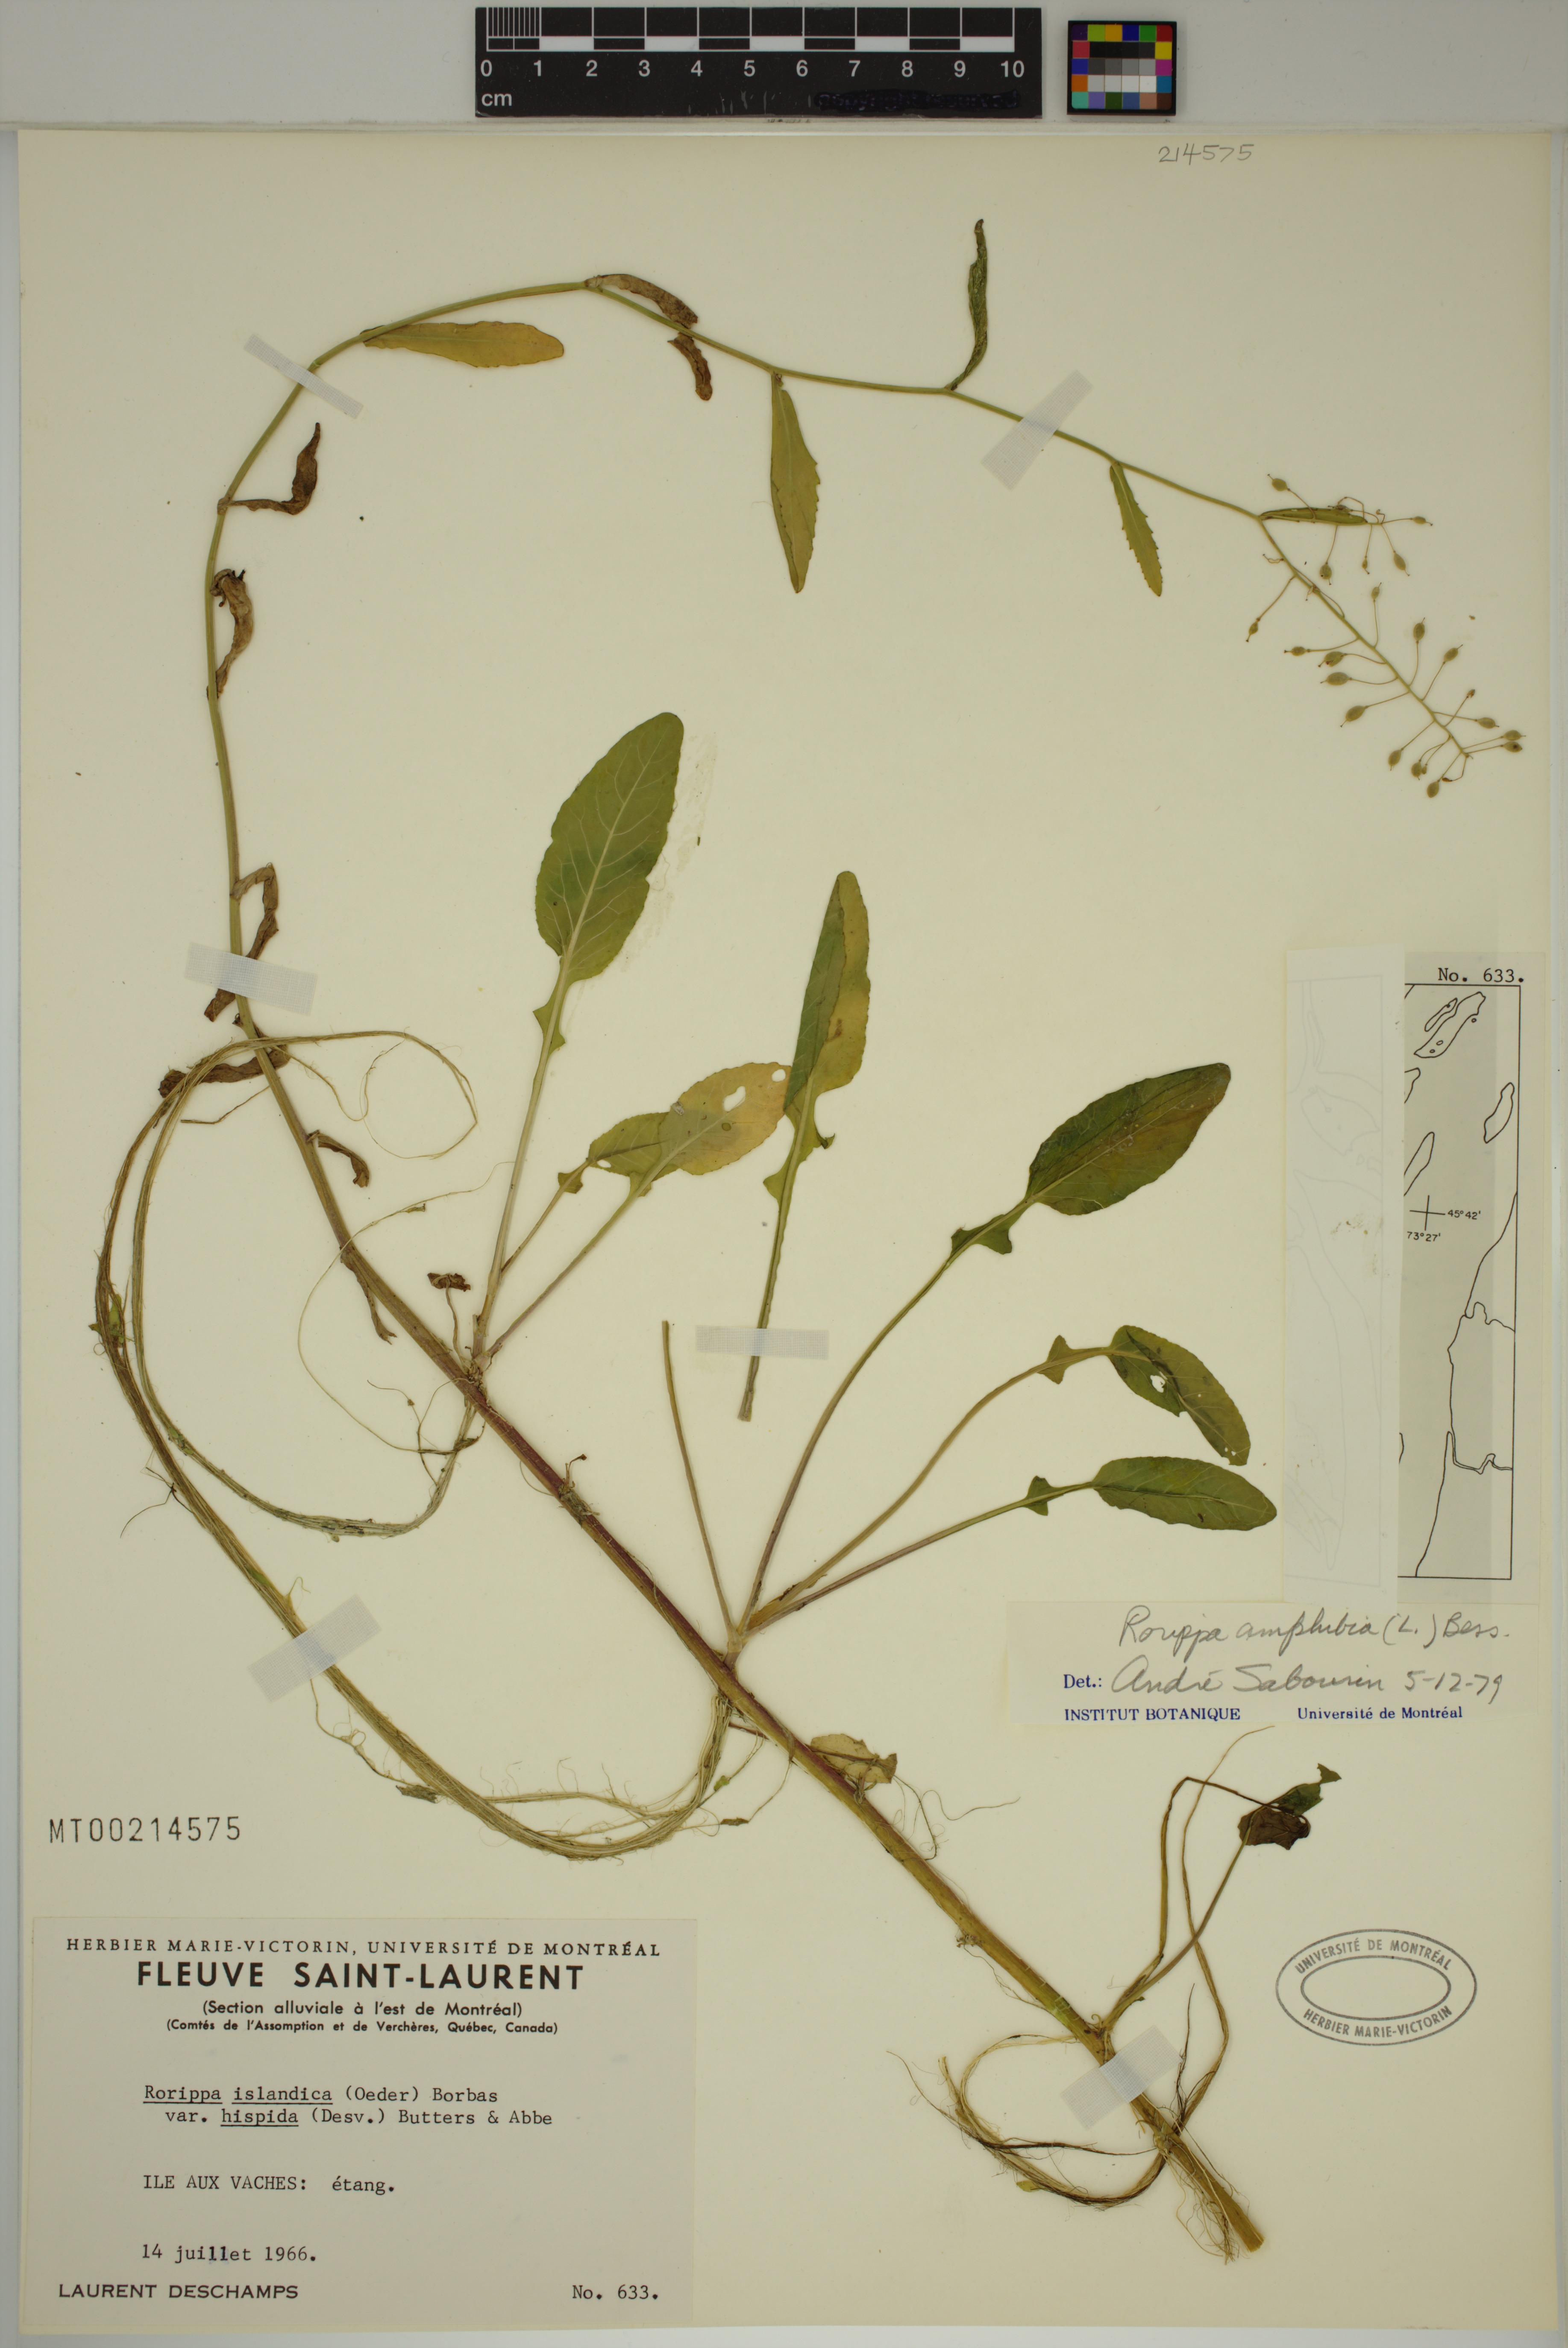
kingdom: Plantae
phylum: Tracheophyta
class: Magnoliopsida
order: Brassicales
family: Brassicaceae
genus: Rorippa
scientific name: Rorippa amphibia
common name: Great yellow-cress
